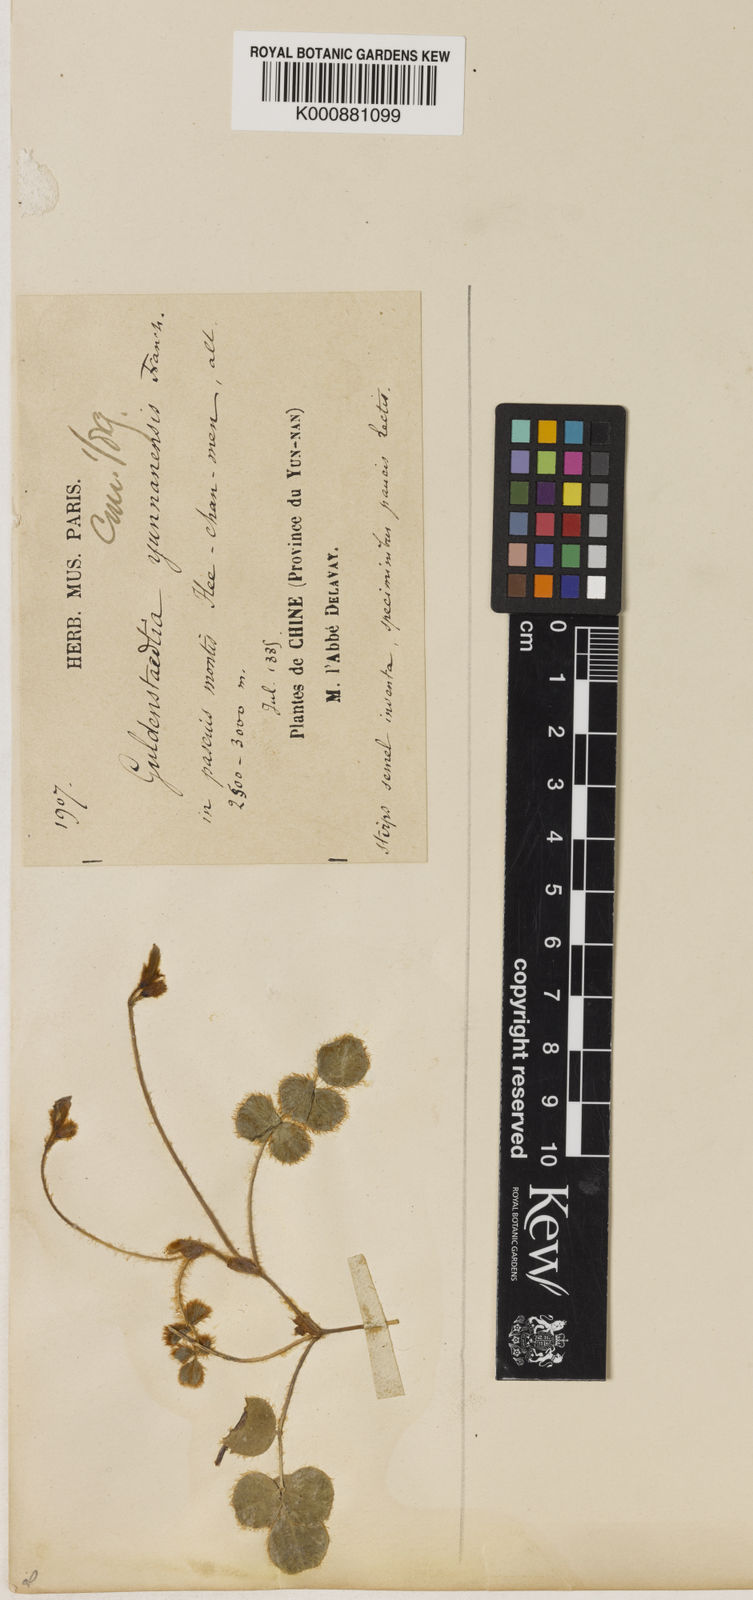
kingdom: Plantae
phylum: Tracheophyta
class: Magnoliopsida
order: Fabales
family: Fabaceae
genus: Gueldenstaedtia
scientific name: Gueldenstaedtia
